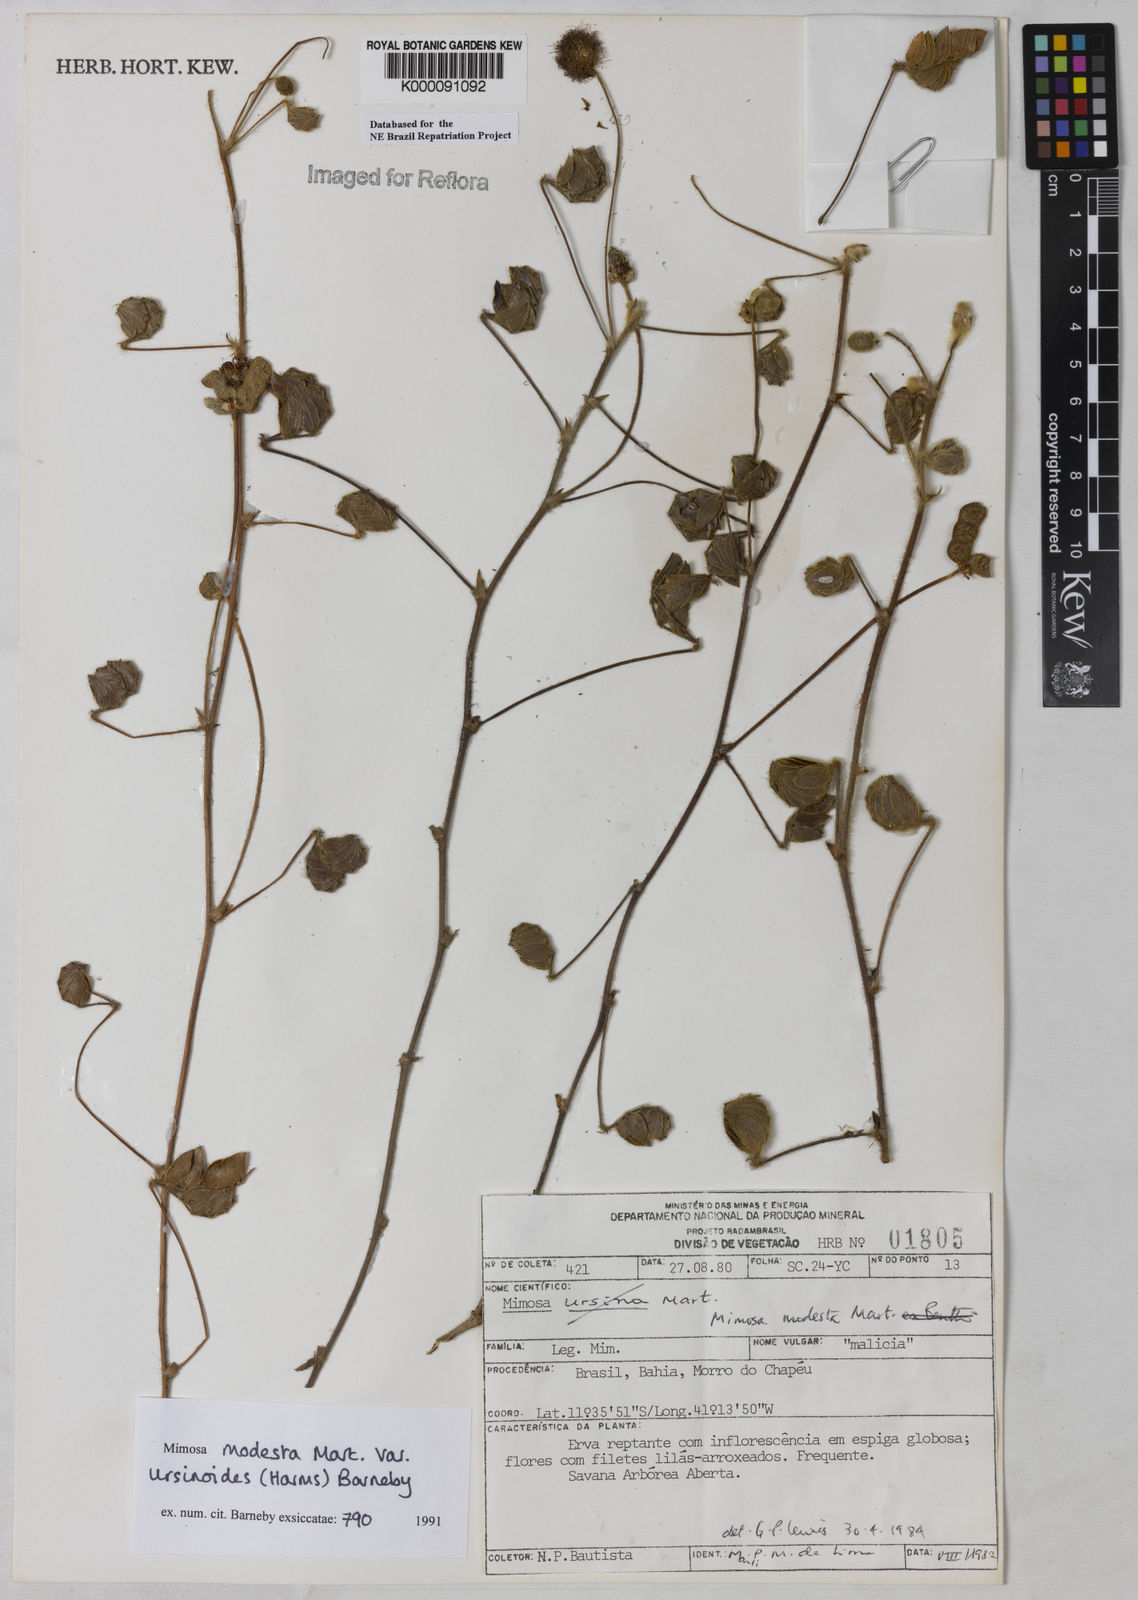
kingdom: Plantae
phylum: Tracheophyta
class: Magnoliopsida
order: Fabales
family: Fabaceae
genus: Mimosa
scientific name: Mimosa modesta
